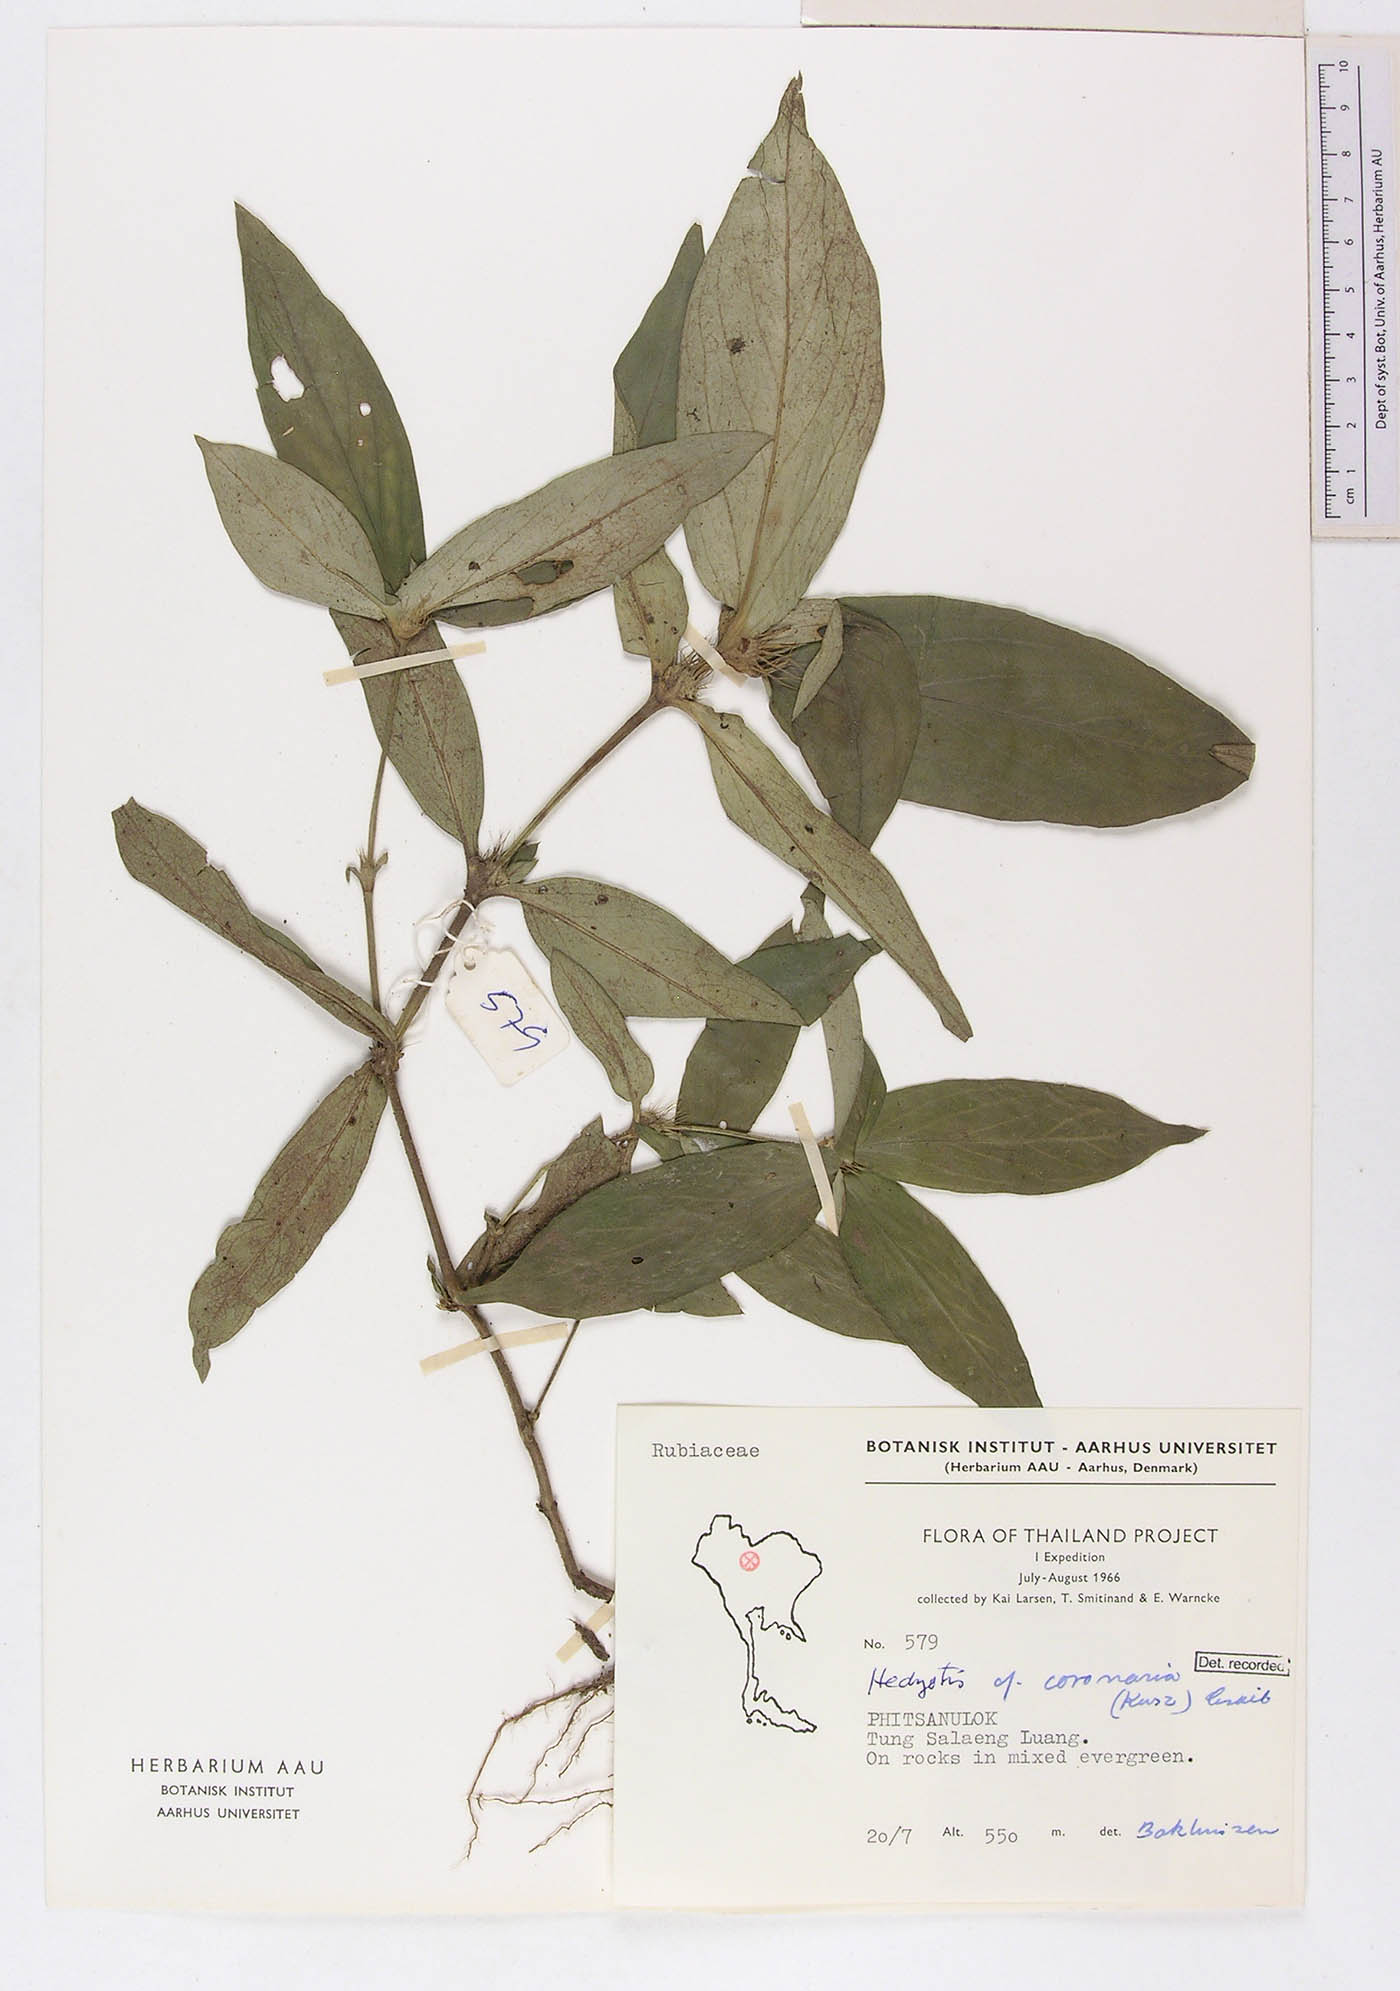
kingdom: Plantae
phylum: Tracheophyta
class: Magnoliopsida
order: Gentianales
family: Rubiaceae
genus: Involucrella
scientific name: Involucrella coronaria
